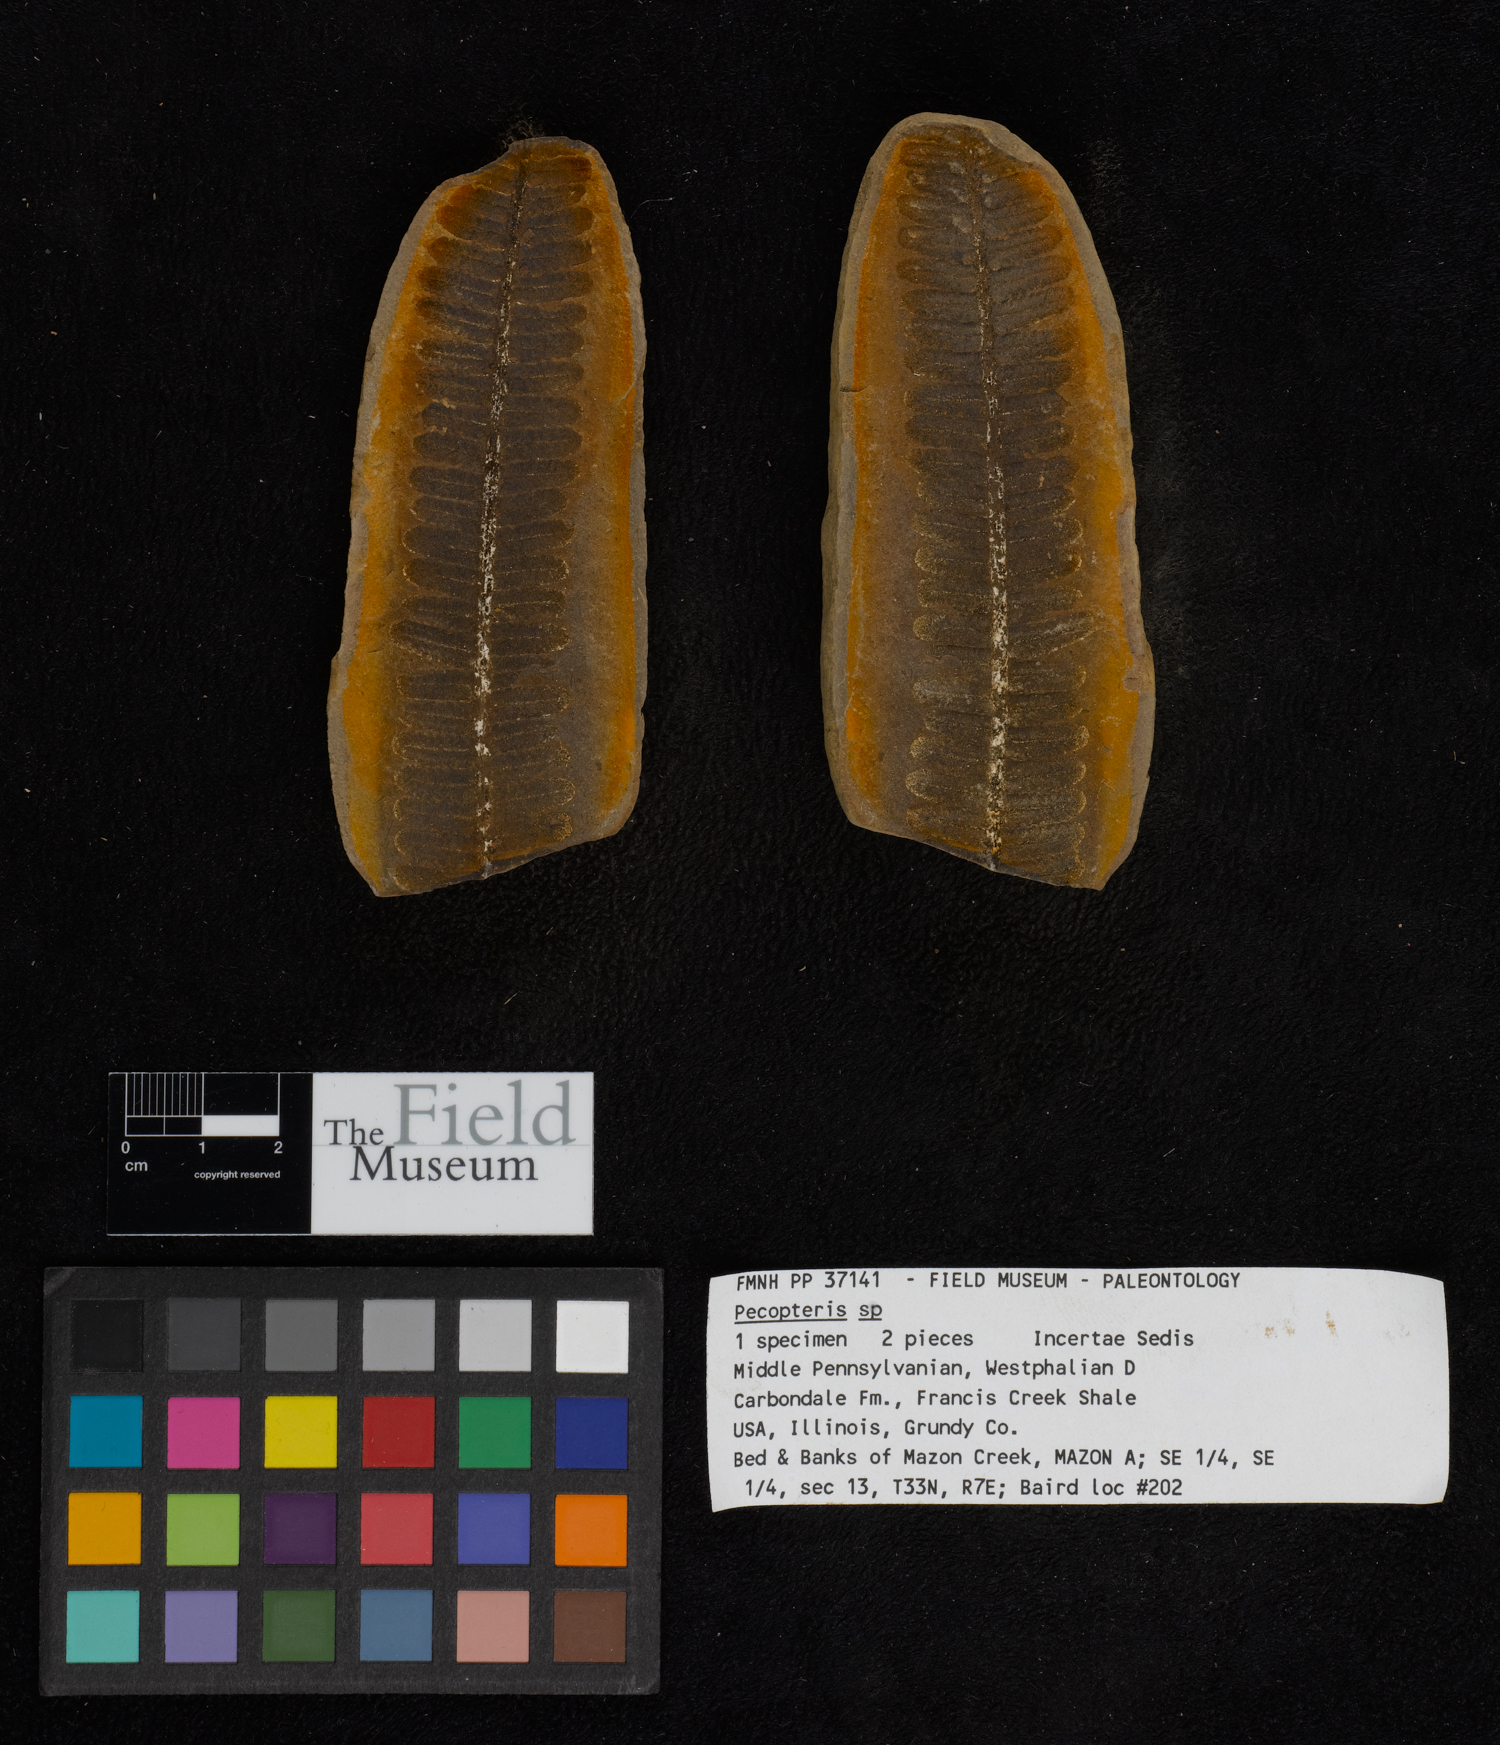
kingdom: Plantae
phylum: Tracheophyta
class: Polypodiopsida
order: Marattiales
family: Asterothecaceae
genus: Pecopteris
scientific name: Pecopteris
